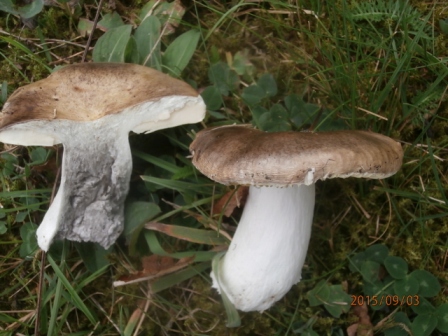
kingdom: Fungi
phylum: Basidiomycota
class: Agaricomycetes
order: Russulales
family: Russulaceae
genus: Russula
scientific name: Russula seperina
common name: rødmende skørhat
